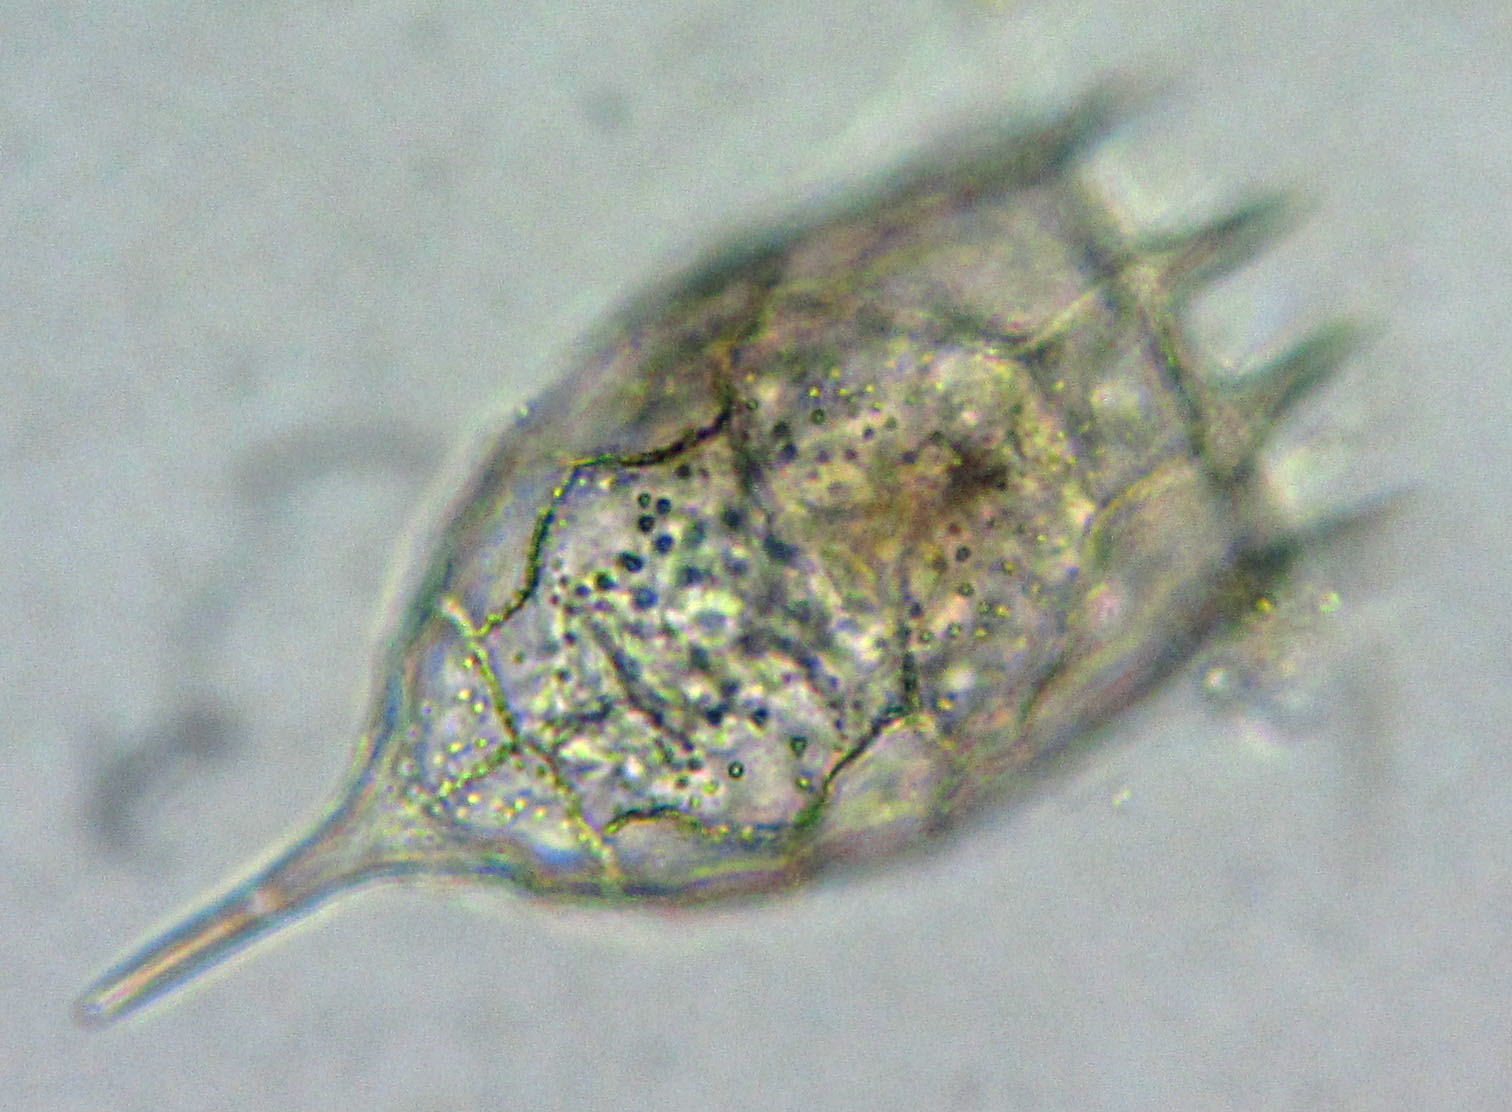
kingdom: Animalia
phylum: Rotifera
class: Eurotatoria
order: Ploima
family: Brachionidae
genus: Keratella
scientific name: Keratella cochlearis
